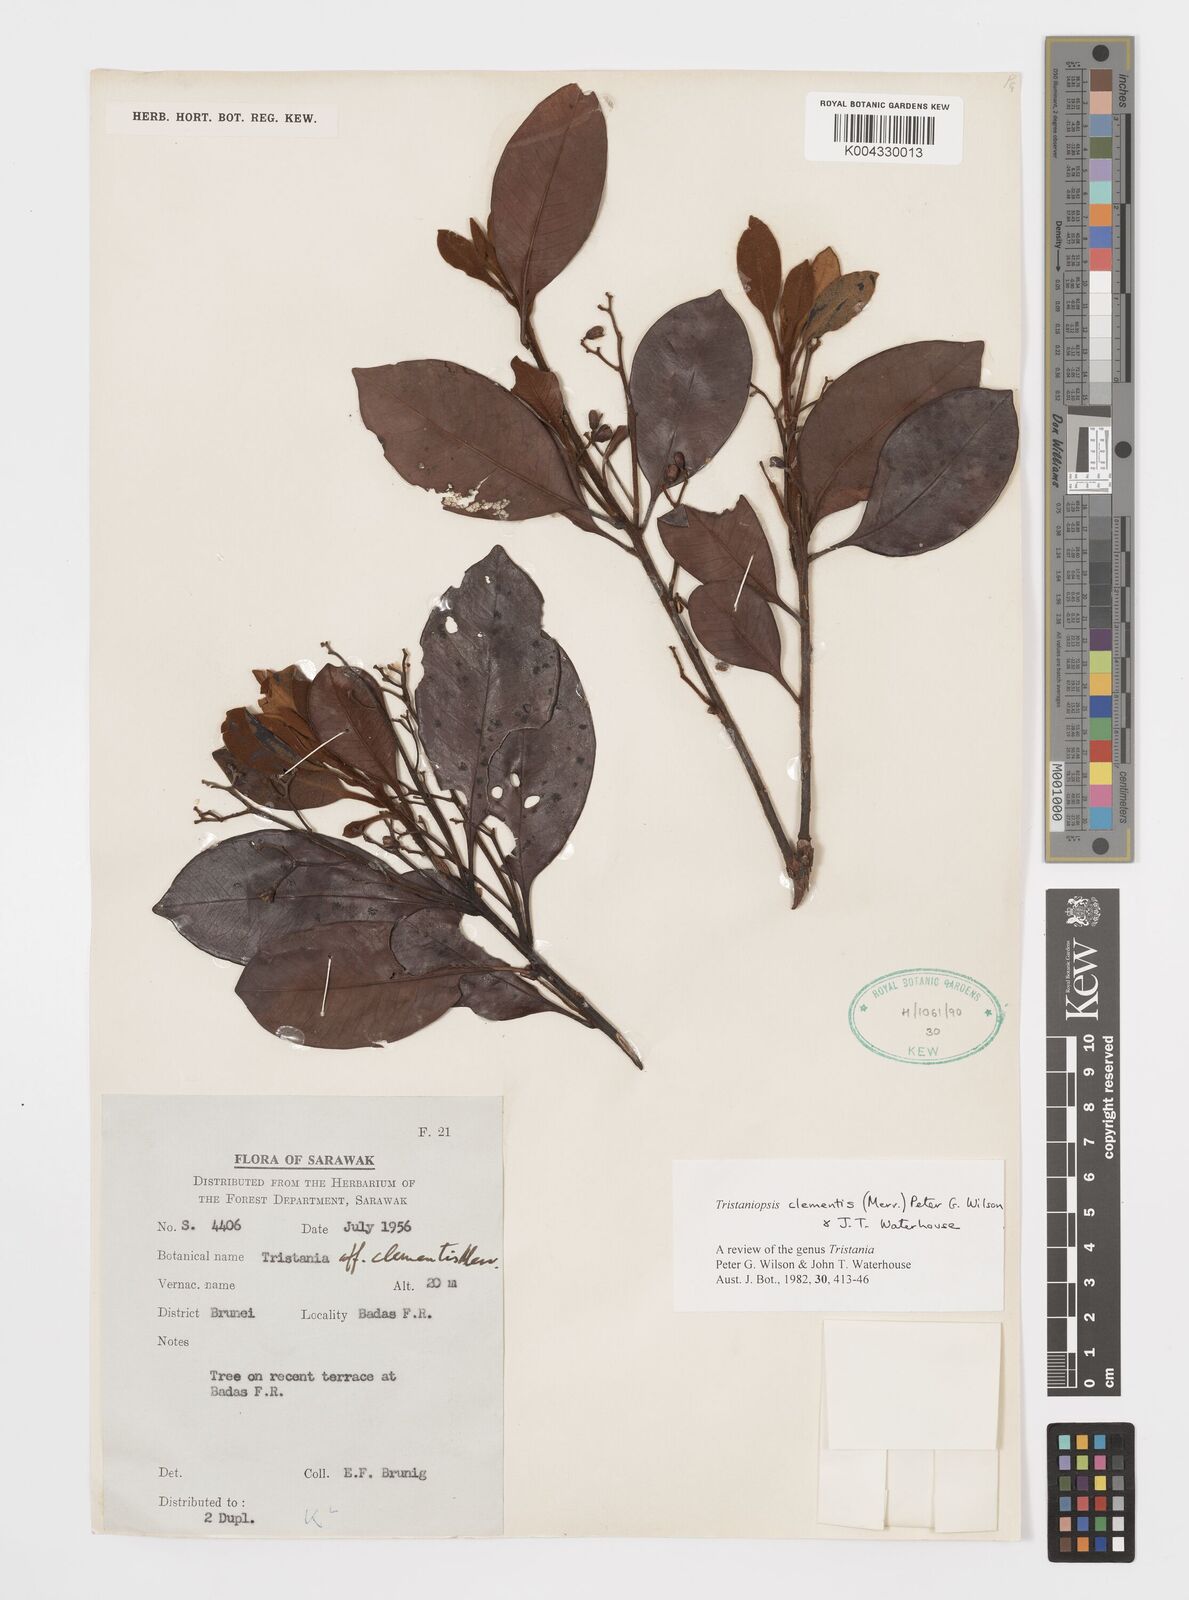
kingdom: Plantae
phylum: Tracheophyta
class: Magnoliopsida
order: Myrtales
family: Myrtaceae
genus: Tristaniopsis
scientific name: Tristaniopsis clementis
